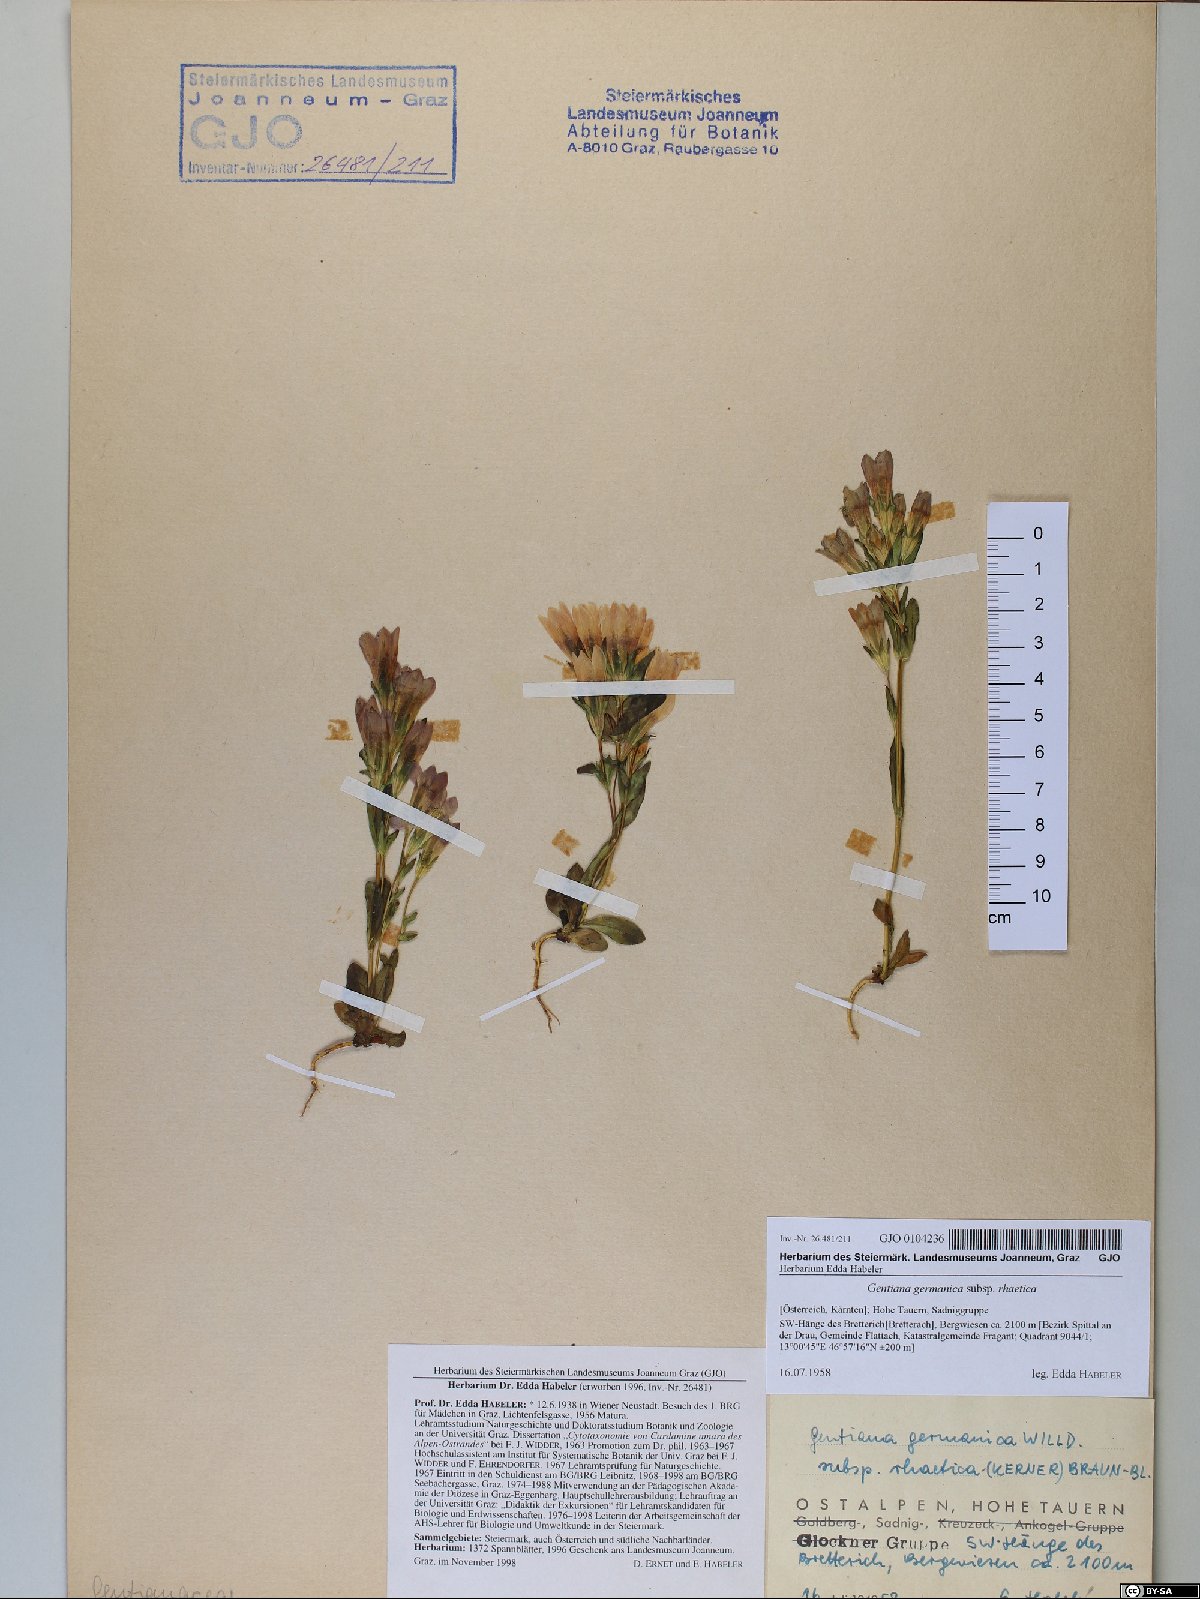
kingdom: Plantae
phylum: Tracheophyta
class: Magnoliopsida
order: Gentianales
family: Gentianaceae
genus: Gentianella
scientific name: Gentianella rhaetica
